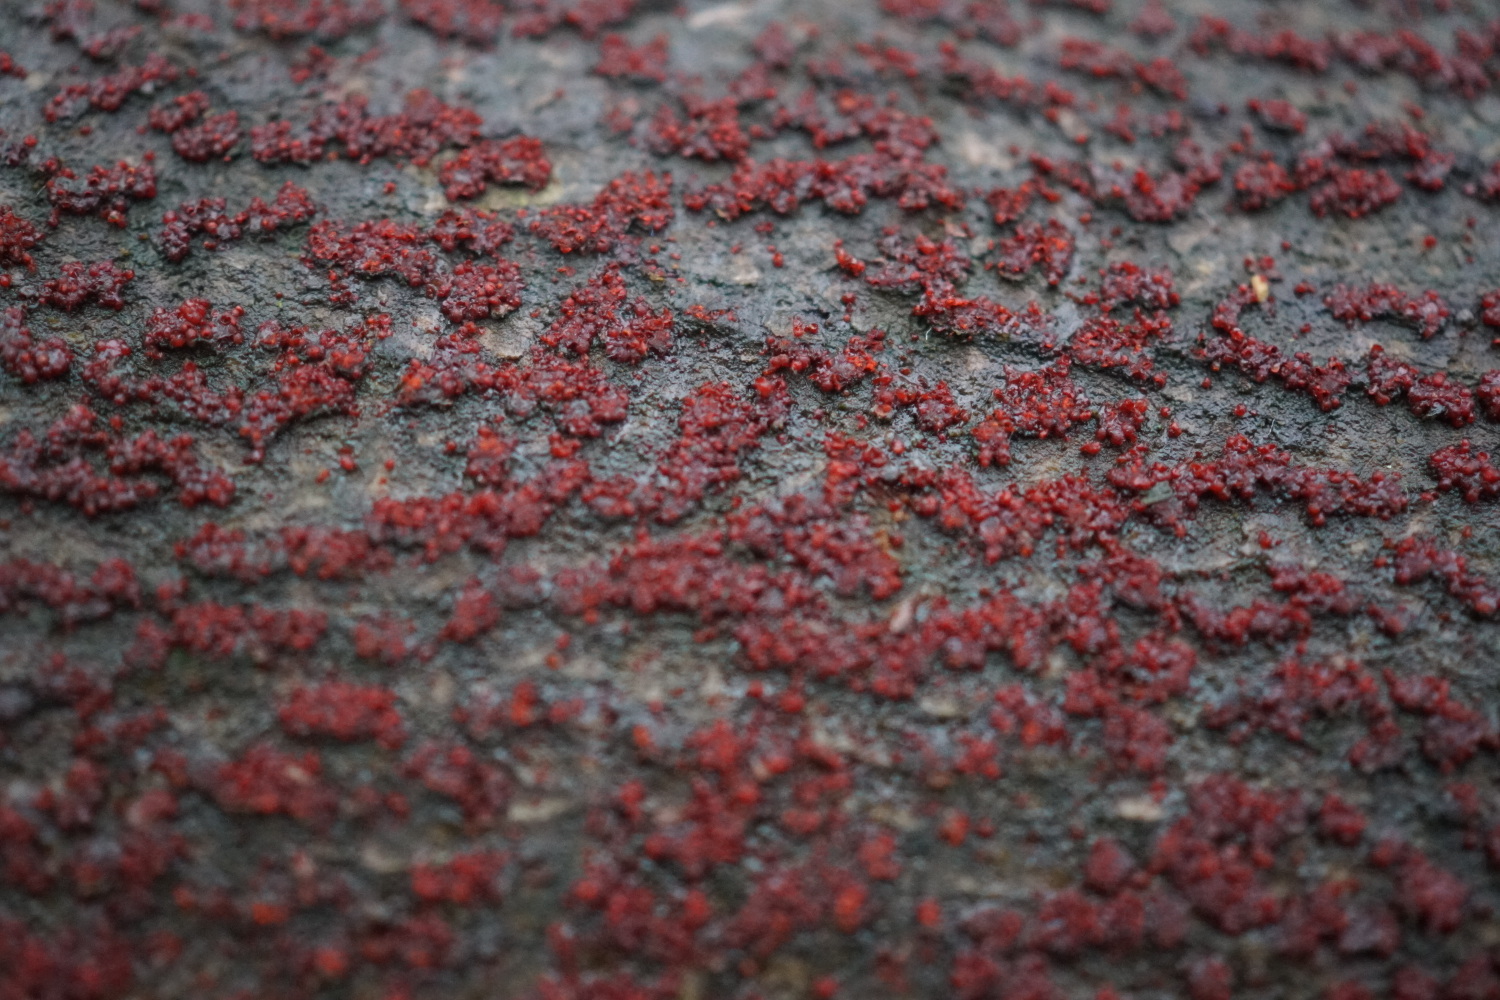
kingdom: Fungi
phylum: Ascomycota
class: Sordariomycetes
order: Hypocreales
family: Nectriaceae
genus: Nectria
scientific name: Nectria cinnabarina
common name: almindelig cinnobersvamp
